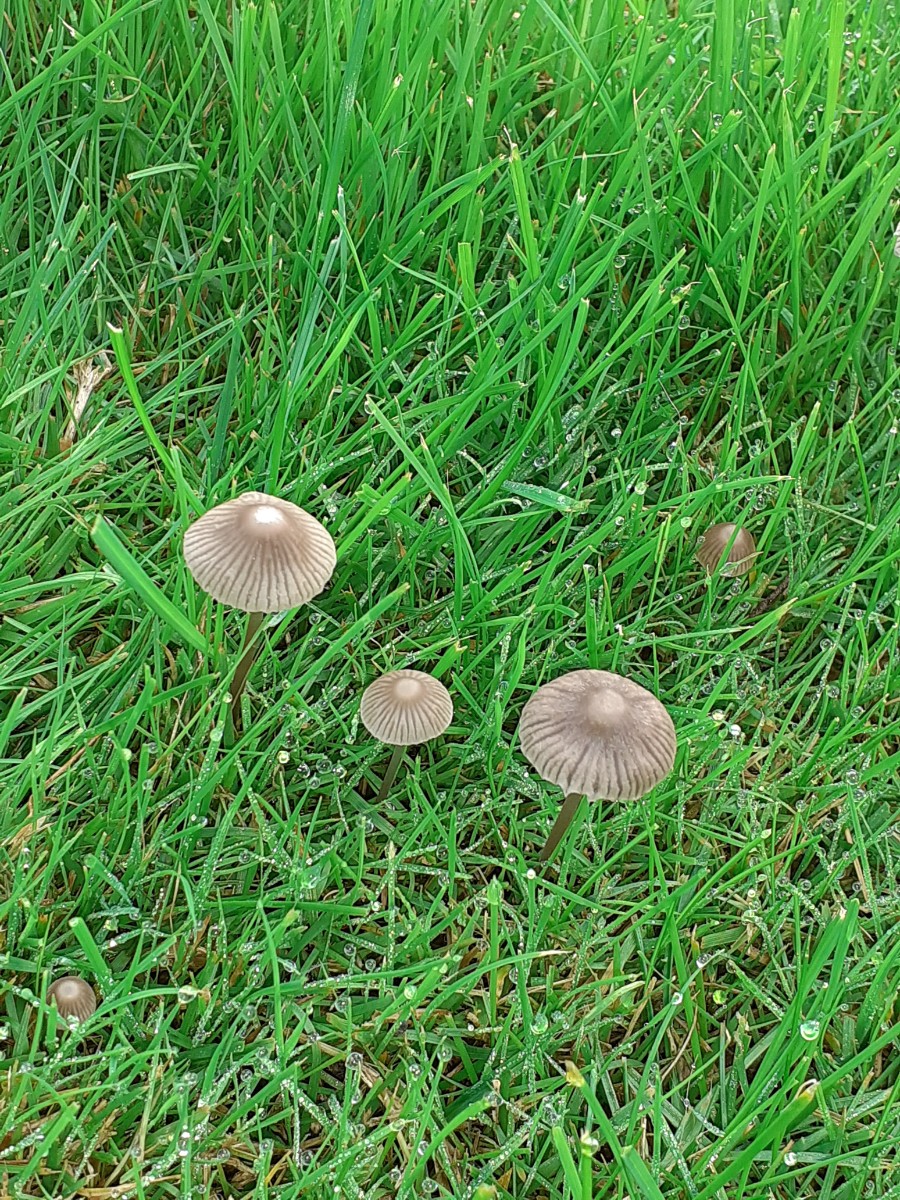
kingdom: Fungi
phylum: Basidiomycota
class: Agaricomycetes
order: Agaricales
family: Mycenaceae
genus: Mycena
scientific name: Mycena aetites
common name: plæne-huesvamp
